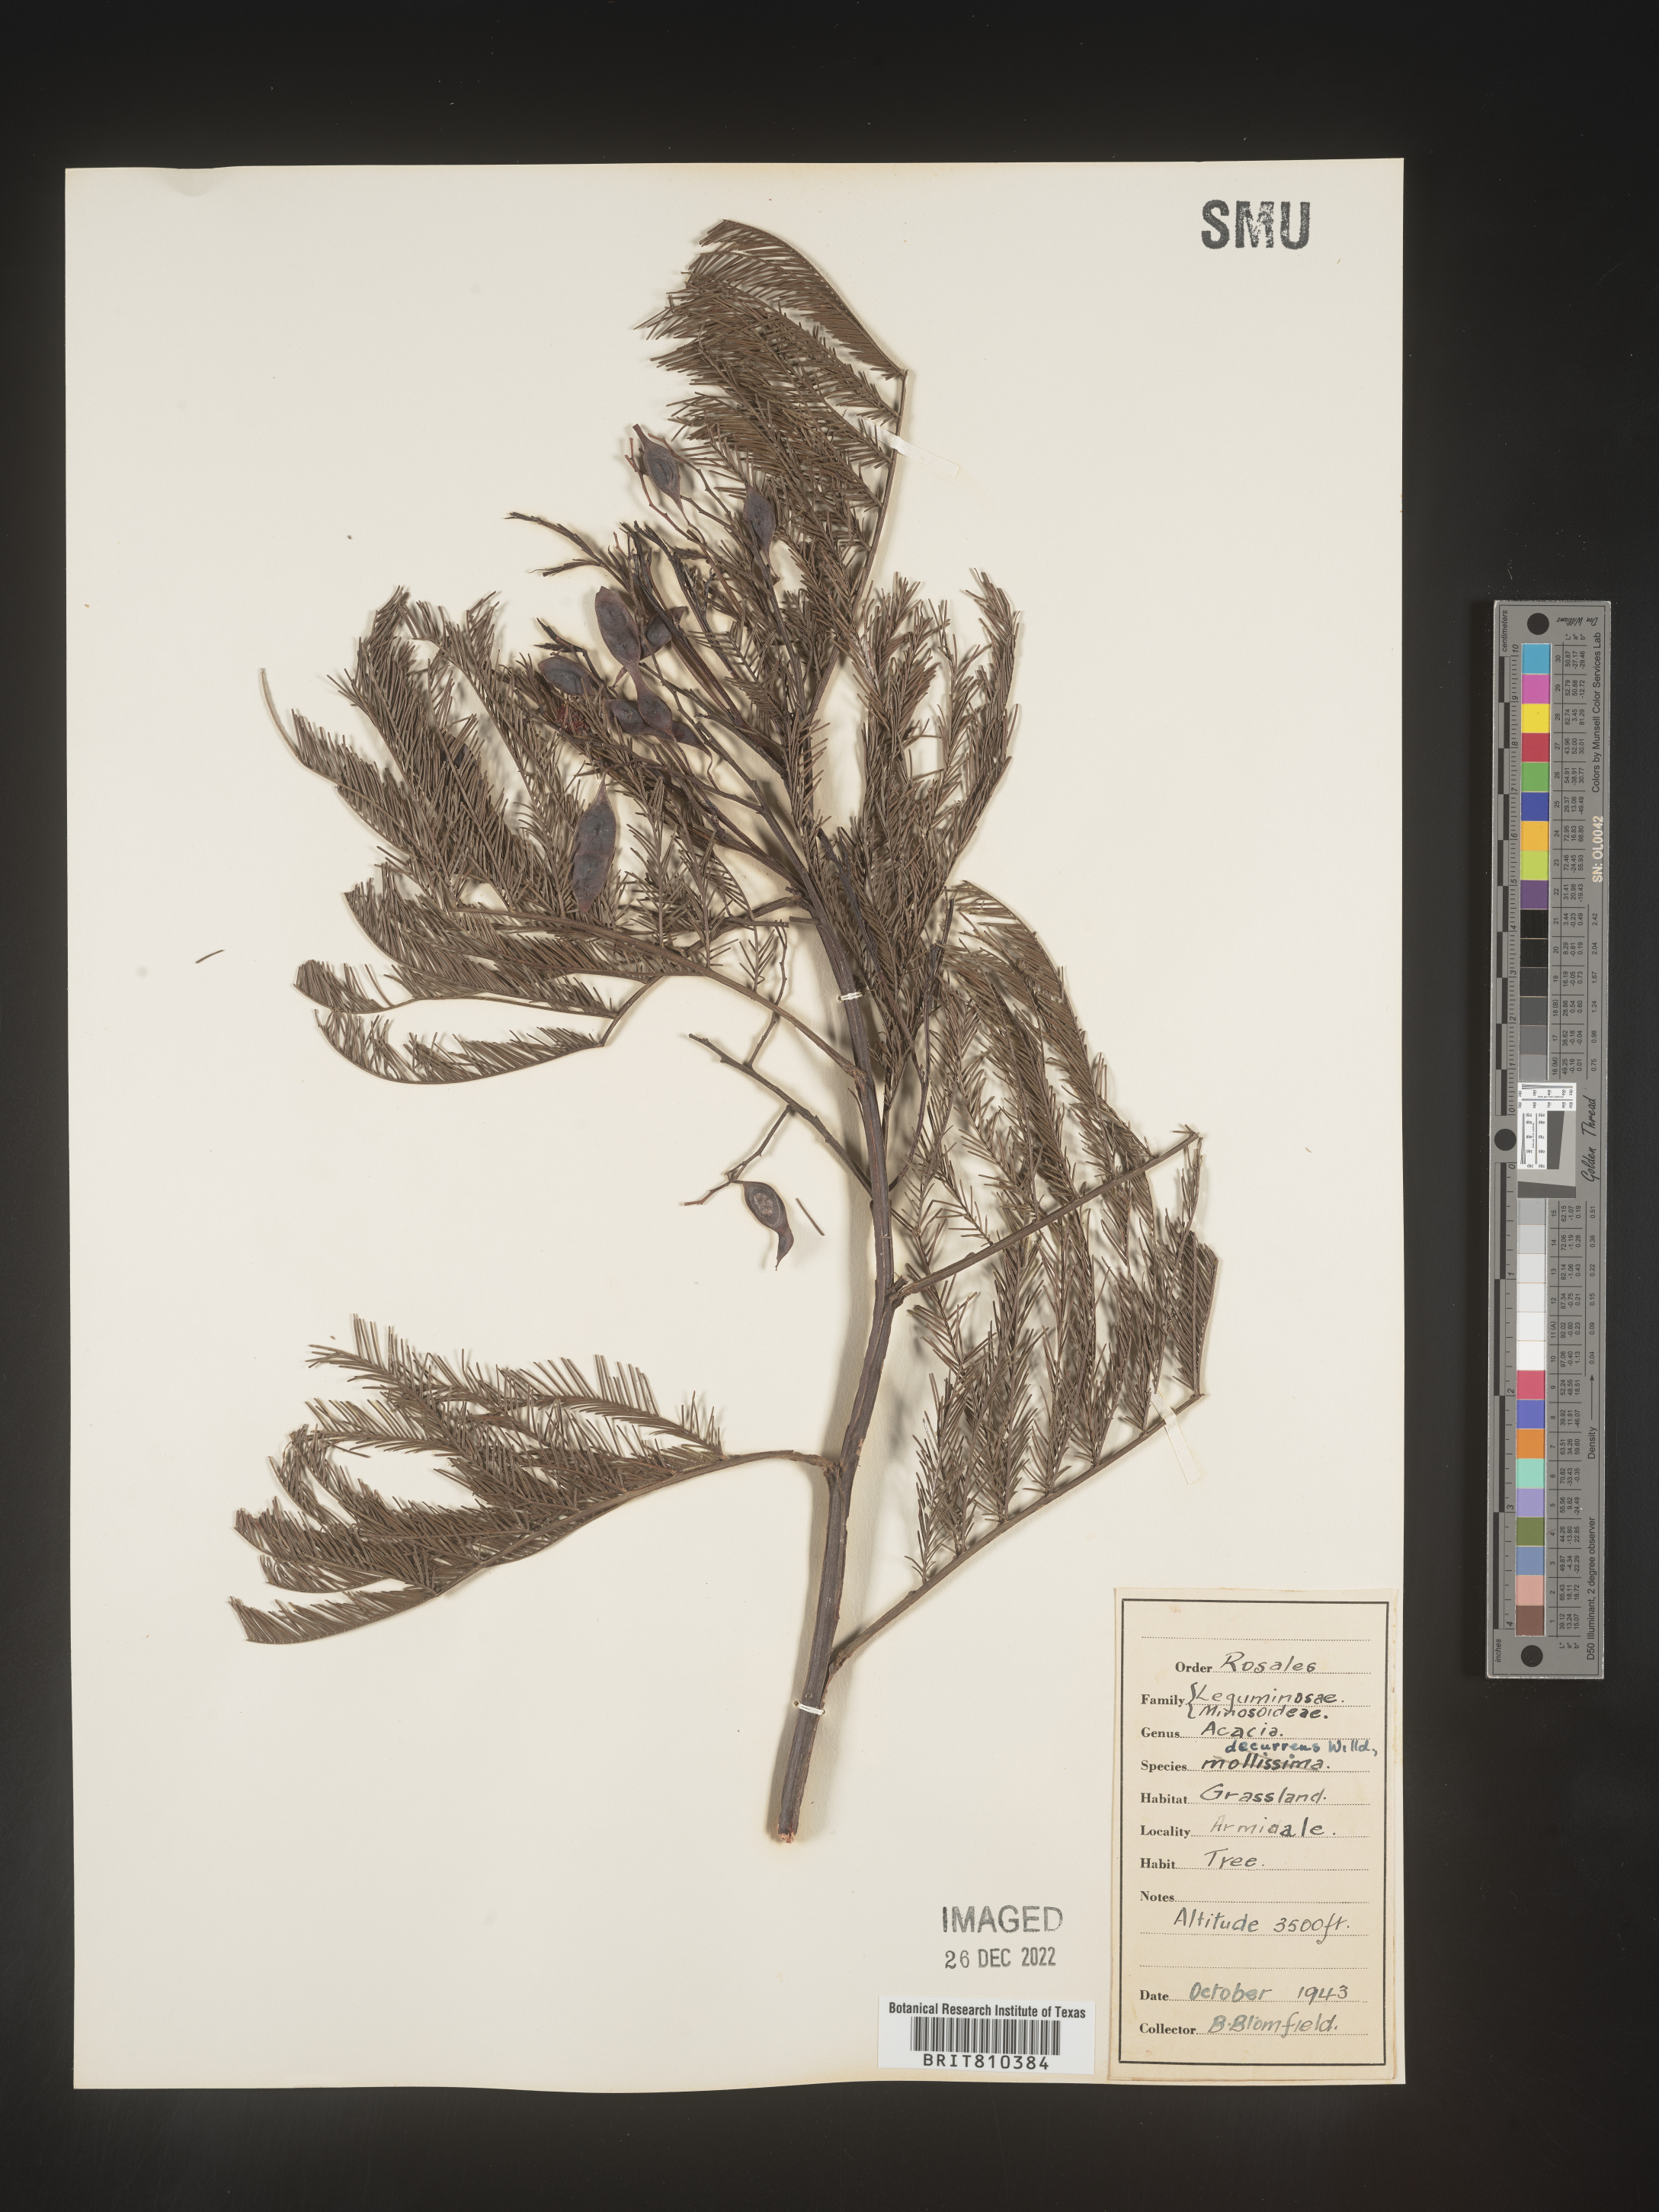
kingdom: Plantae
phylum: Tracheophyta
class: Magnoliopsida
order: Fabales
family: Fabaceae
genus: Acacia
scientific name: Acacia
